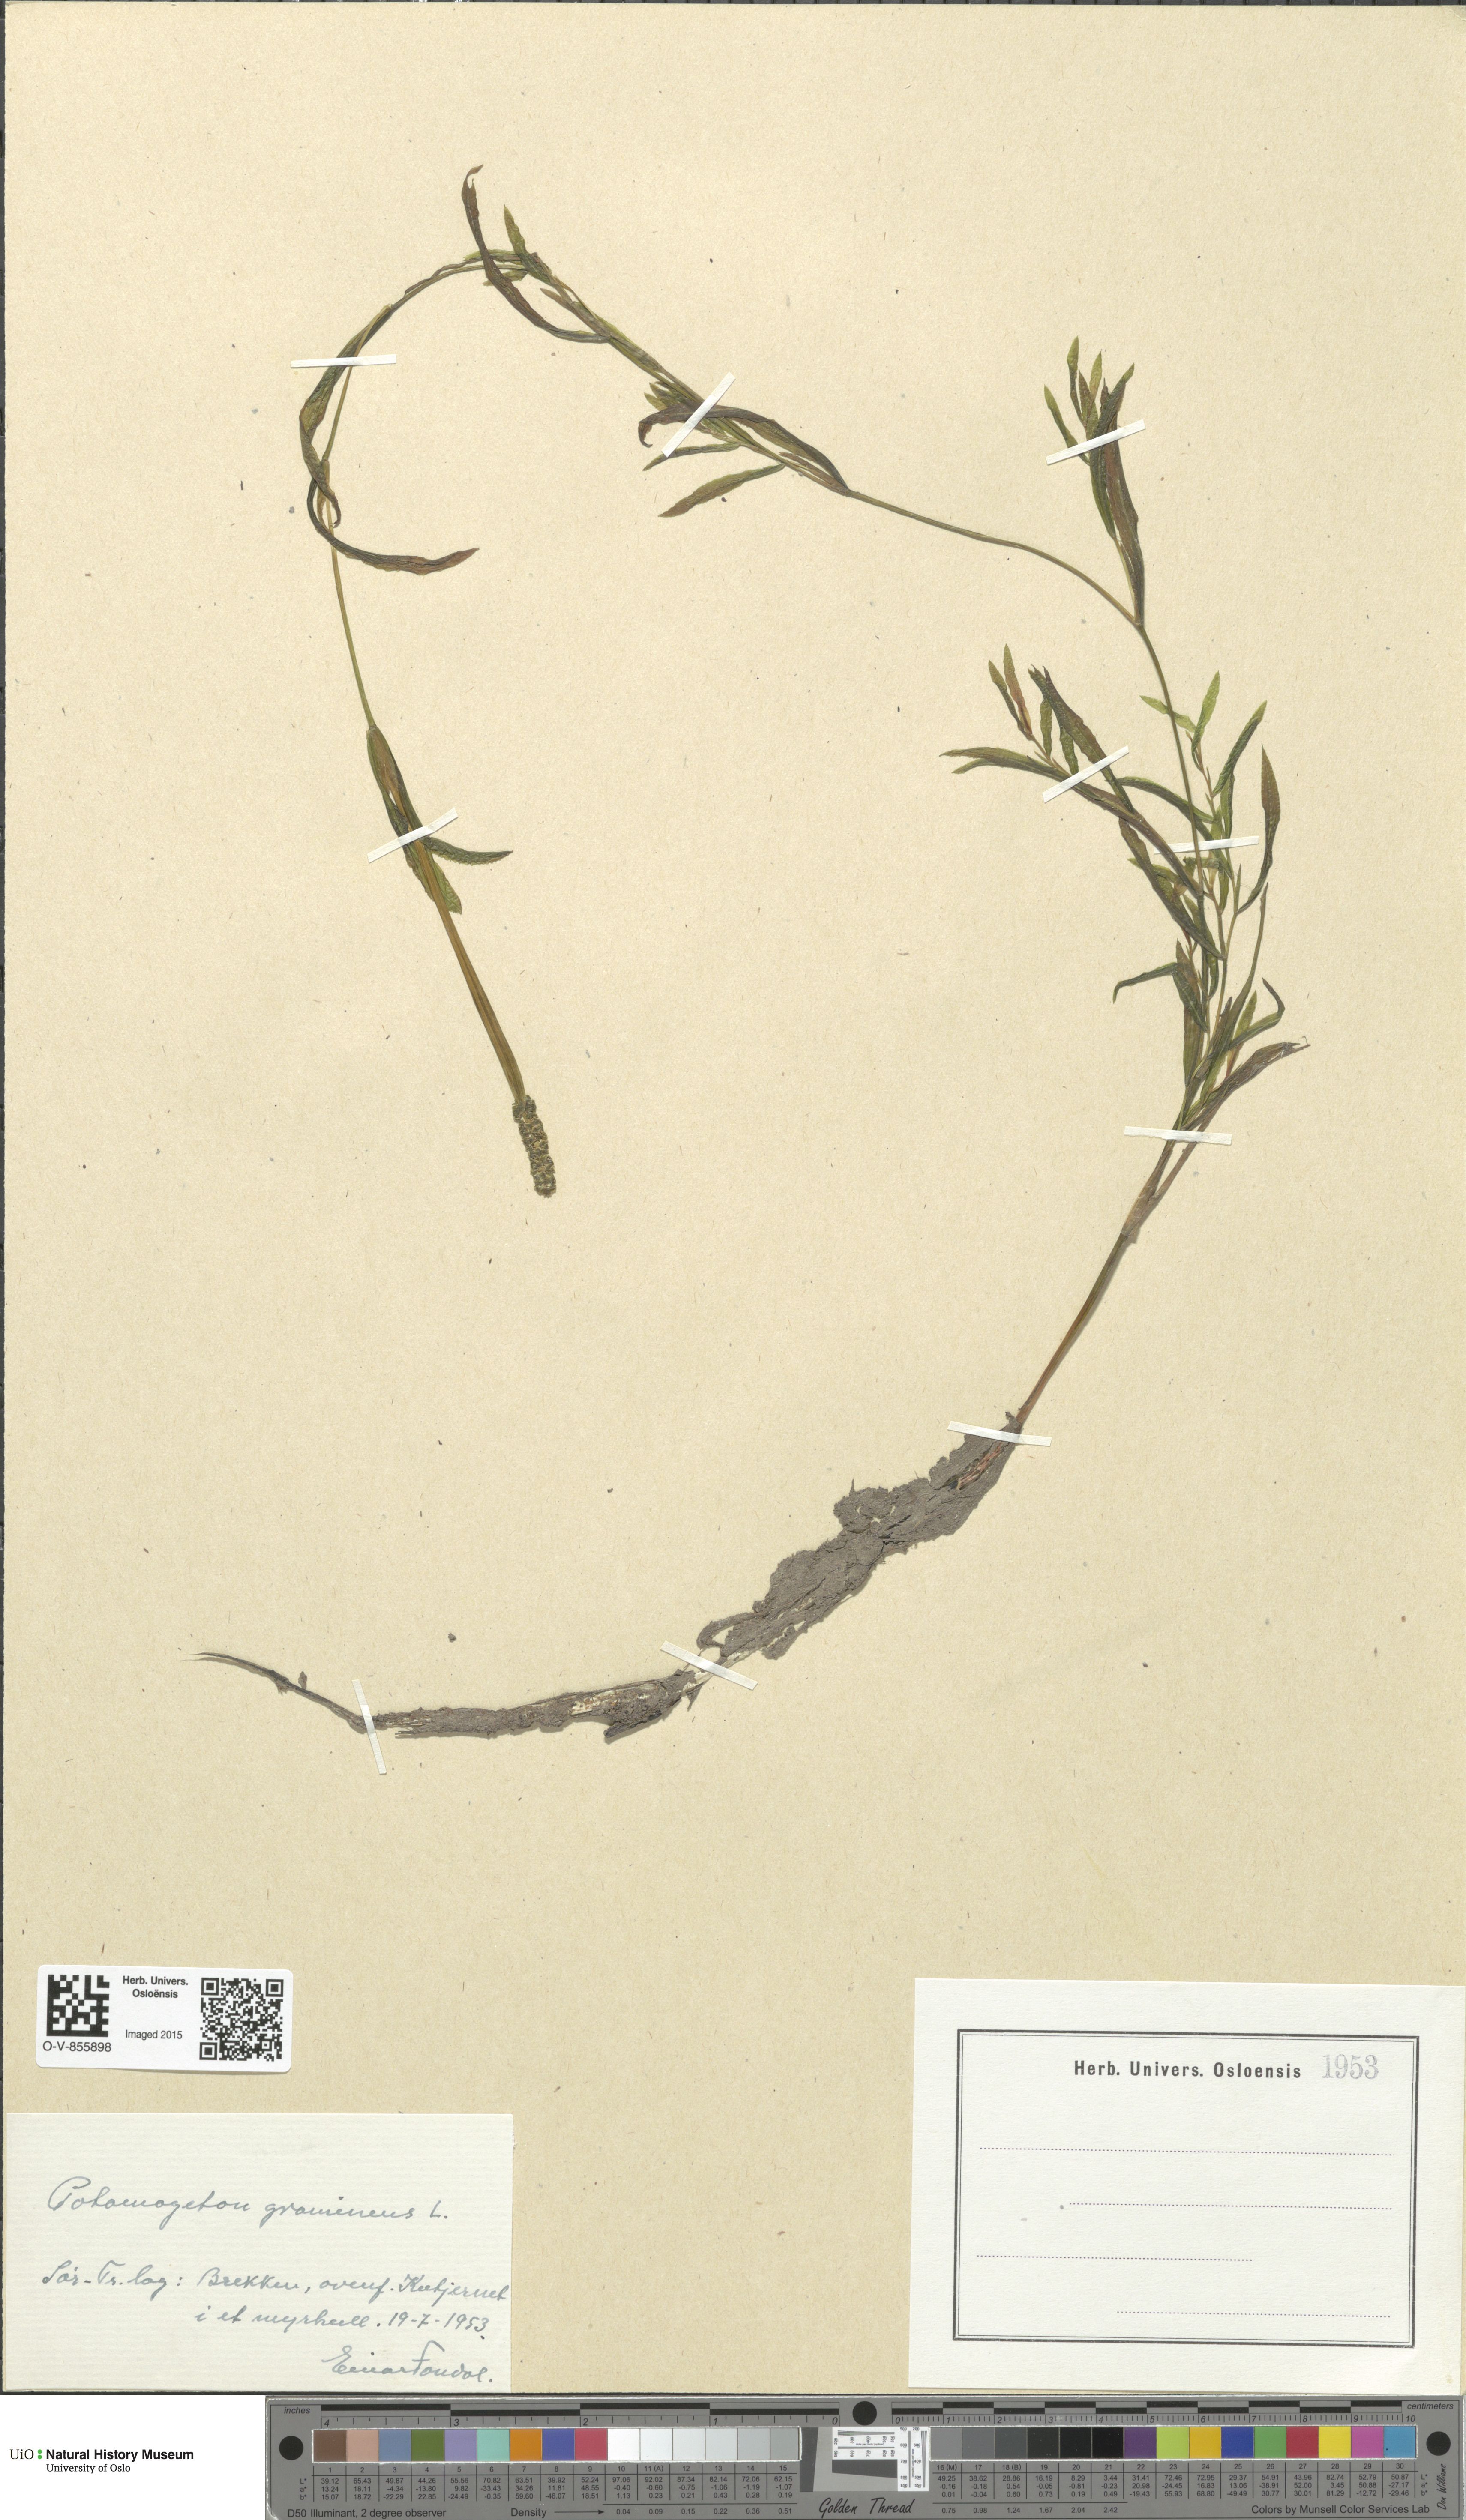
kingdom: Plantae
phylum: Tracheophyta
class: Liliopsida
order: Alismatales
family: Potamogetonaceae
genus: Potamogeton
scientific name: Potamogeton gramineus
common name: Various-leaved pondweed
